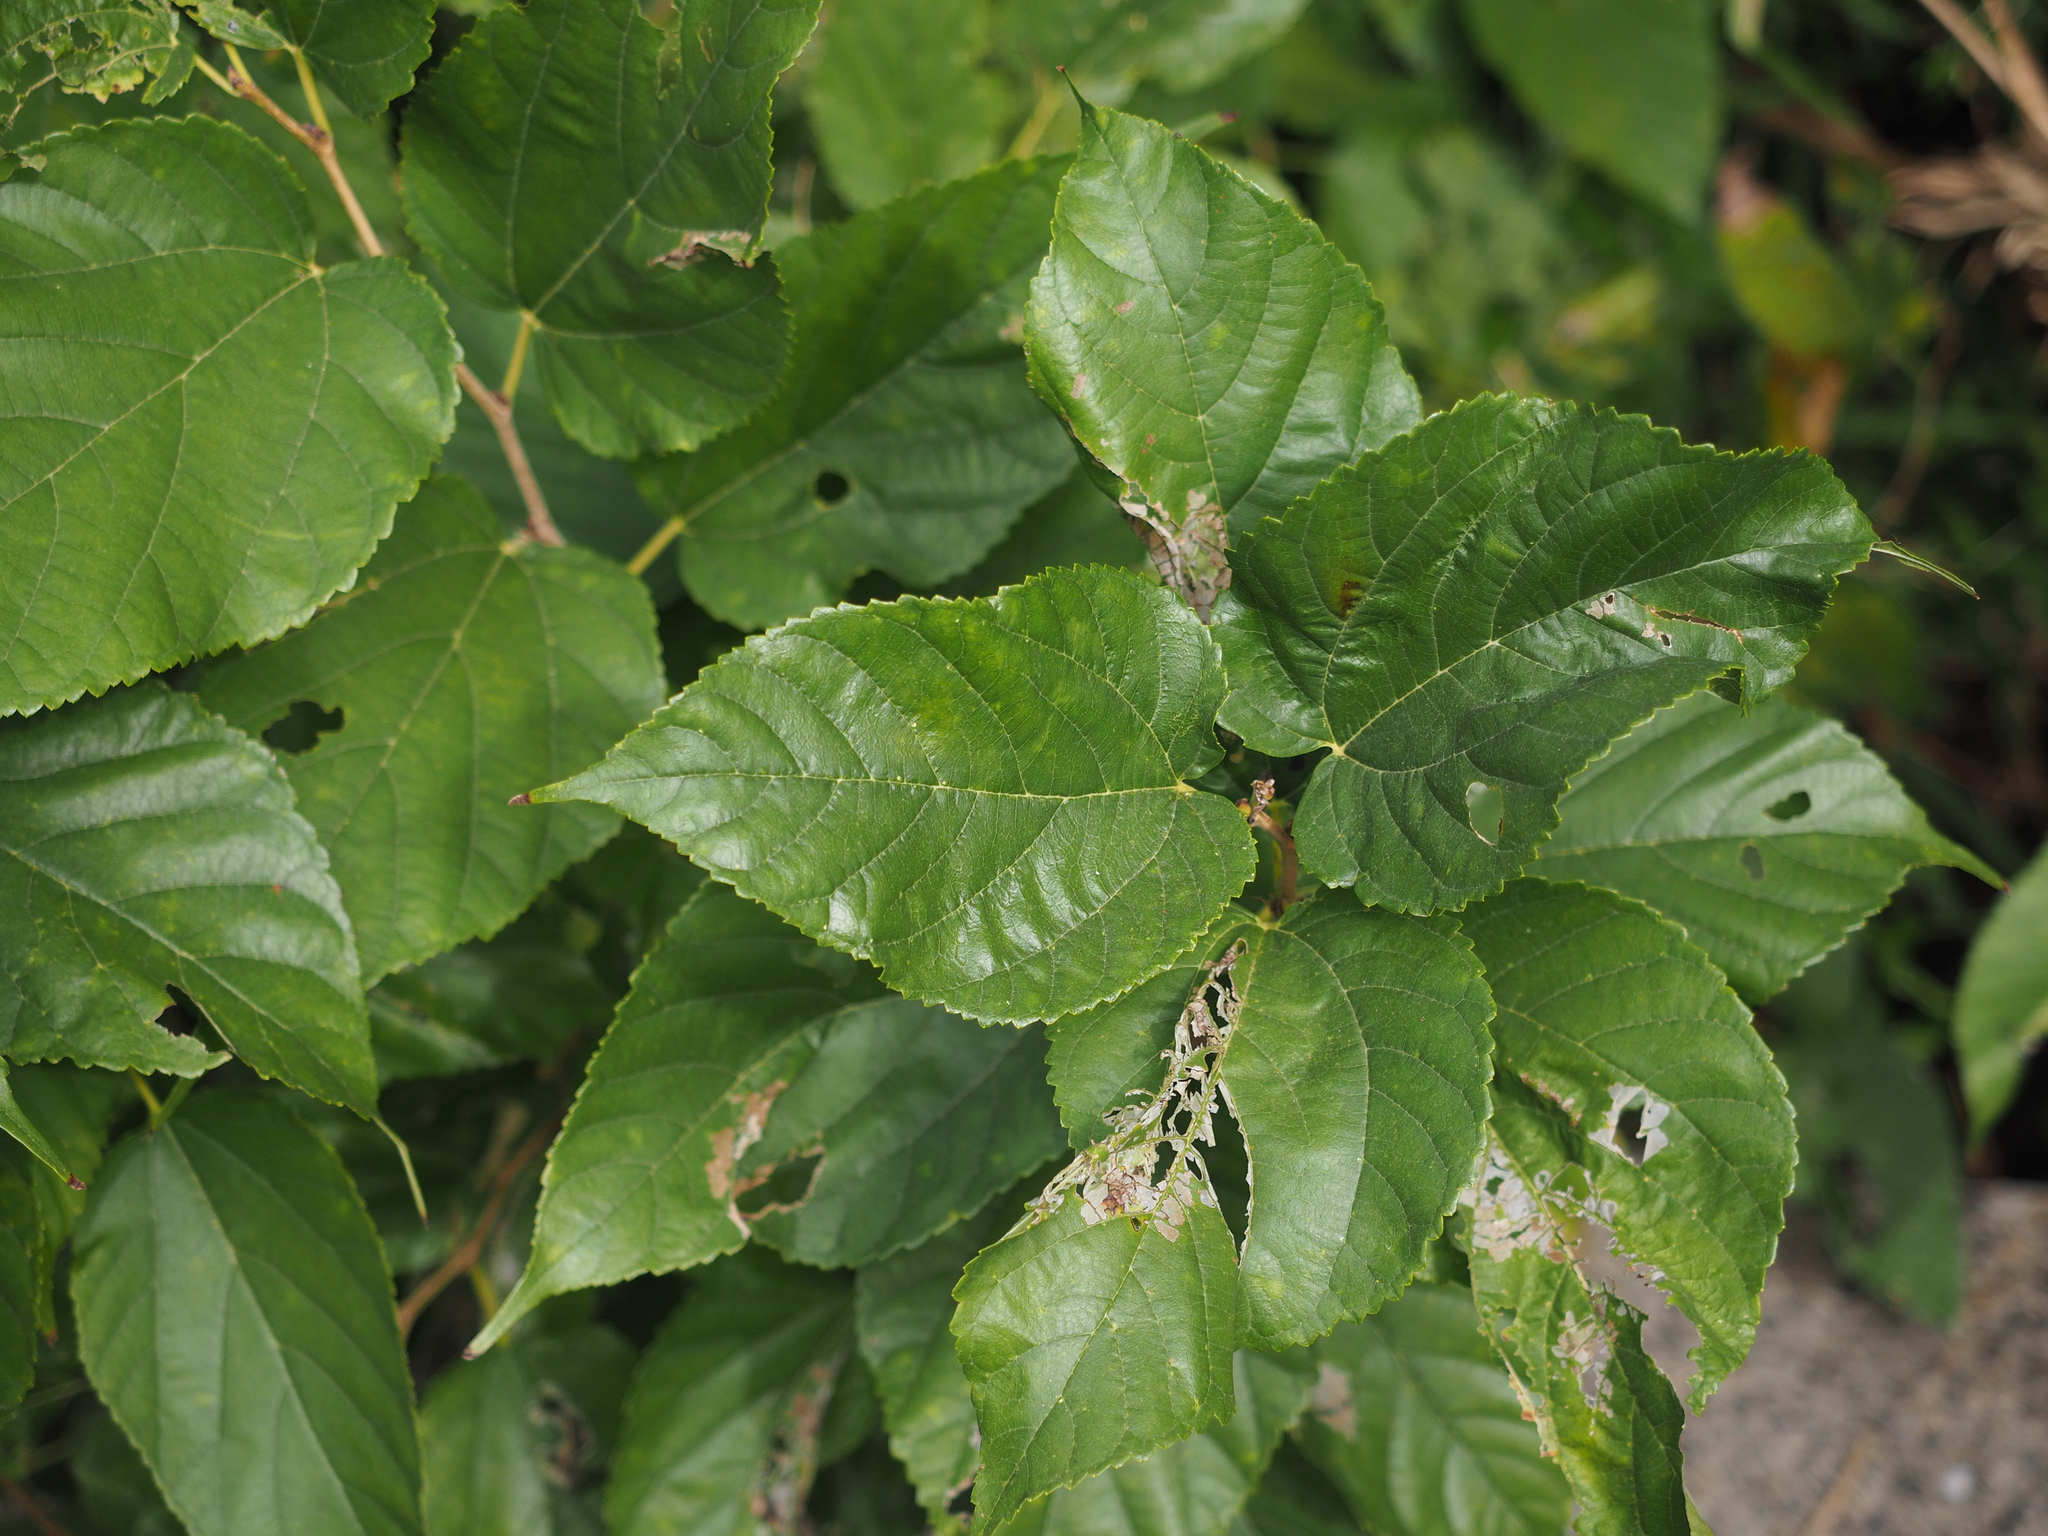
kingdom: Plantae
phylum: Tracheophyta
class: Magnoliopsida
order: Rosales
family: Moraceae
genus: Broussonetia
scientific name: Broussonetia papyrifera
